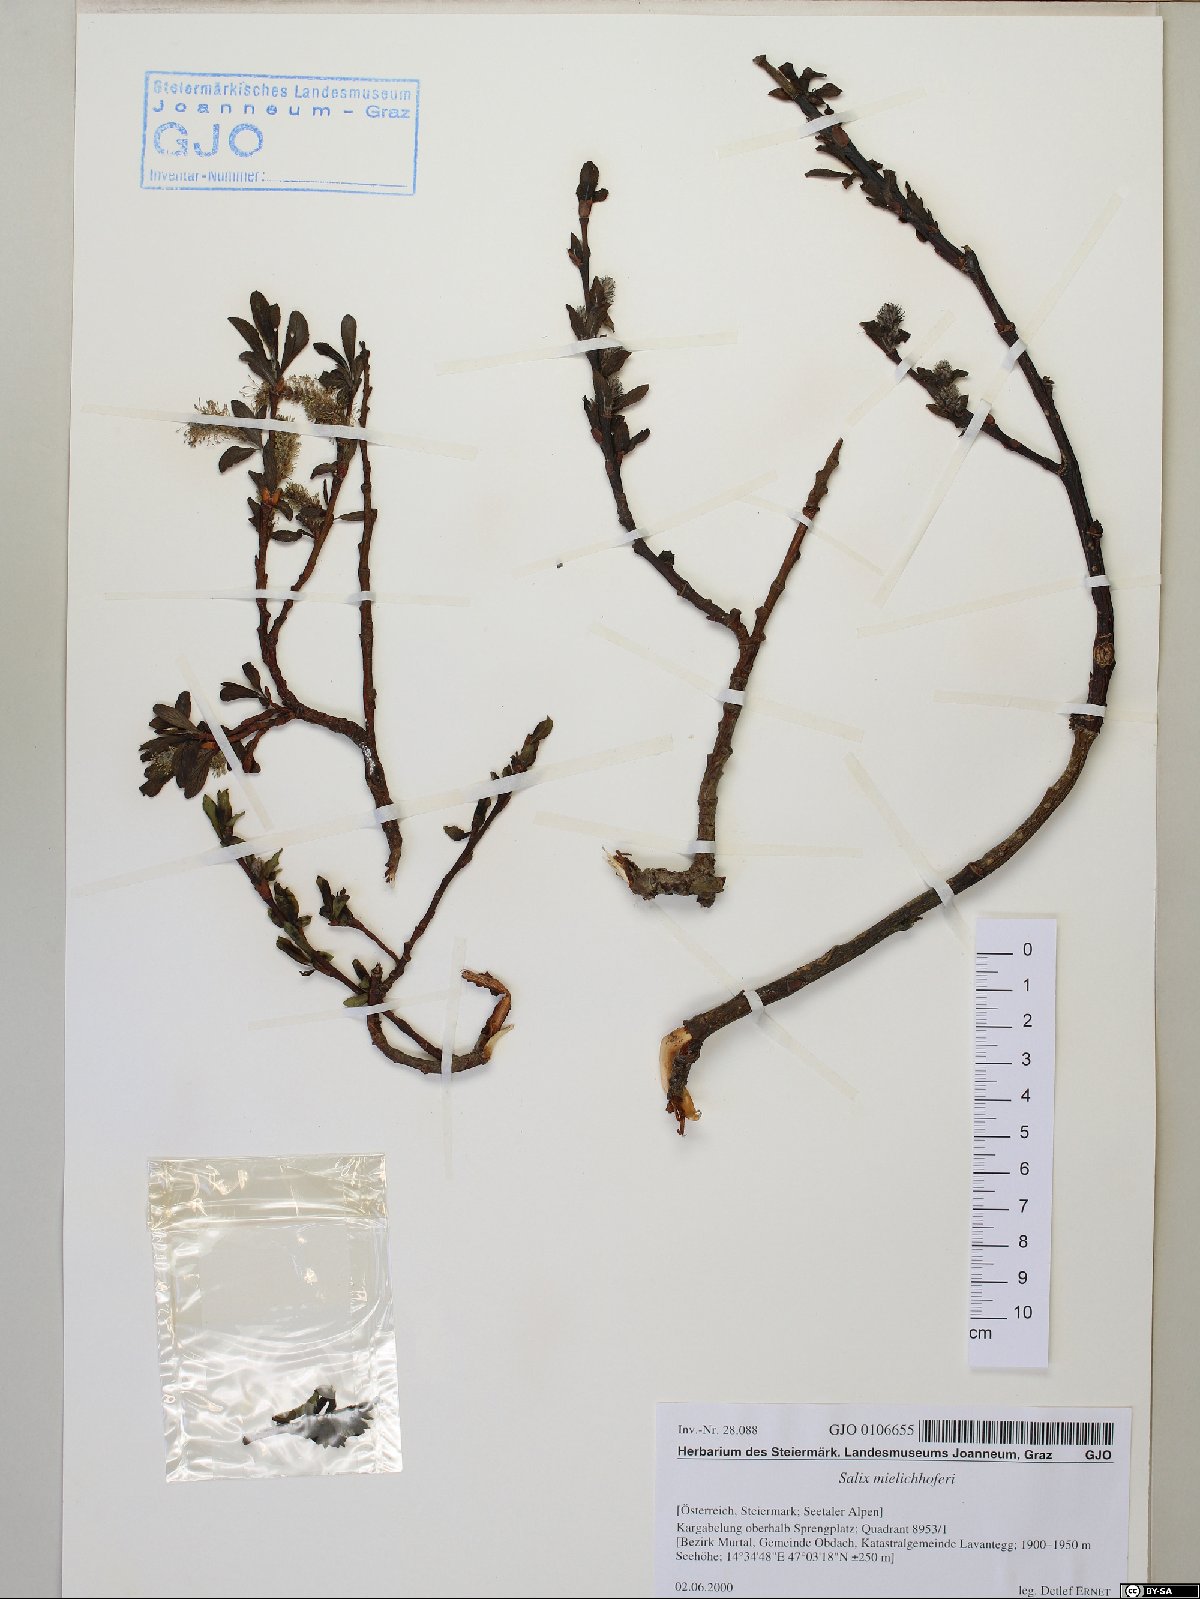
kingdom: Plantae
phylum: Tracheophyta
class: Magnoliopsida
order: Malpighiales
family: Salicaceae
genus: Salix
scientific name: Salix mielichhoferi
